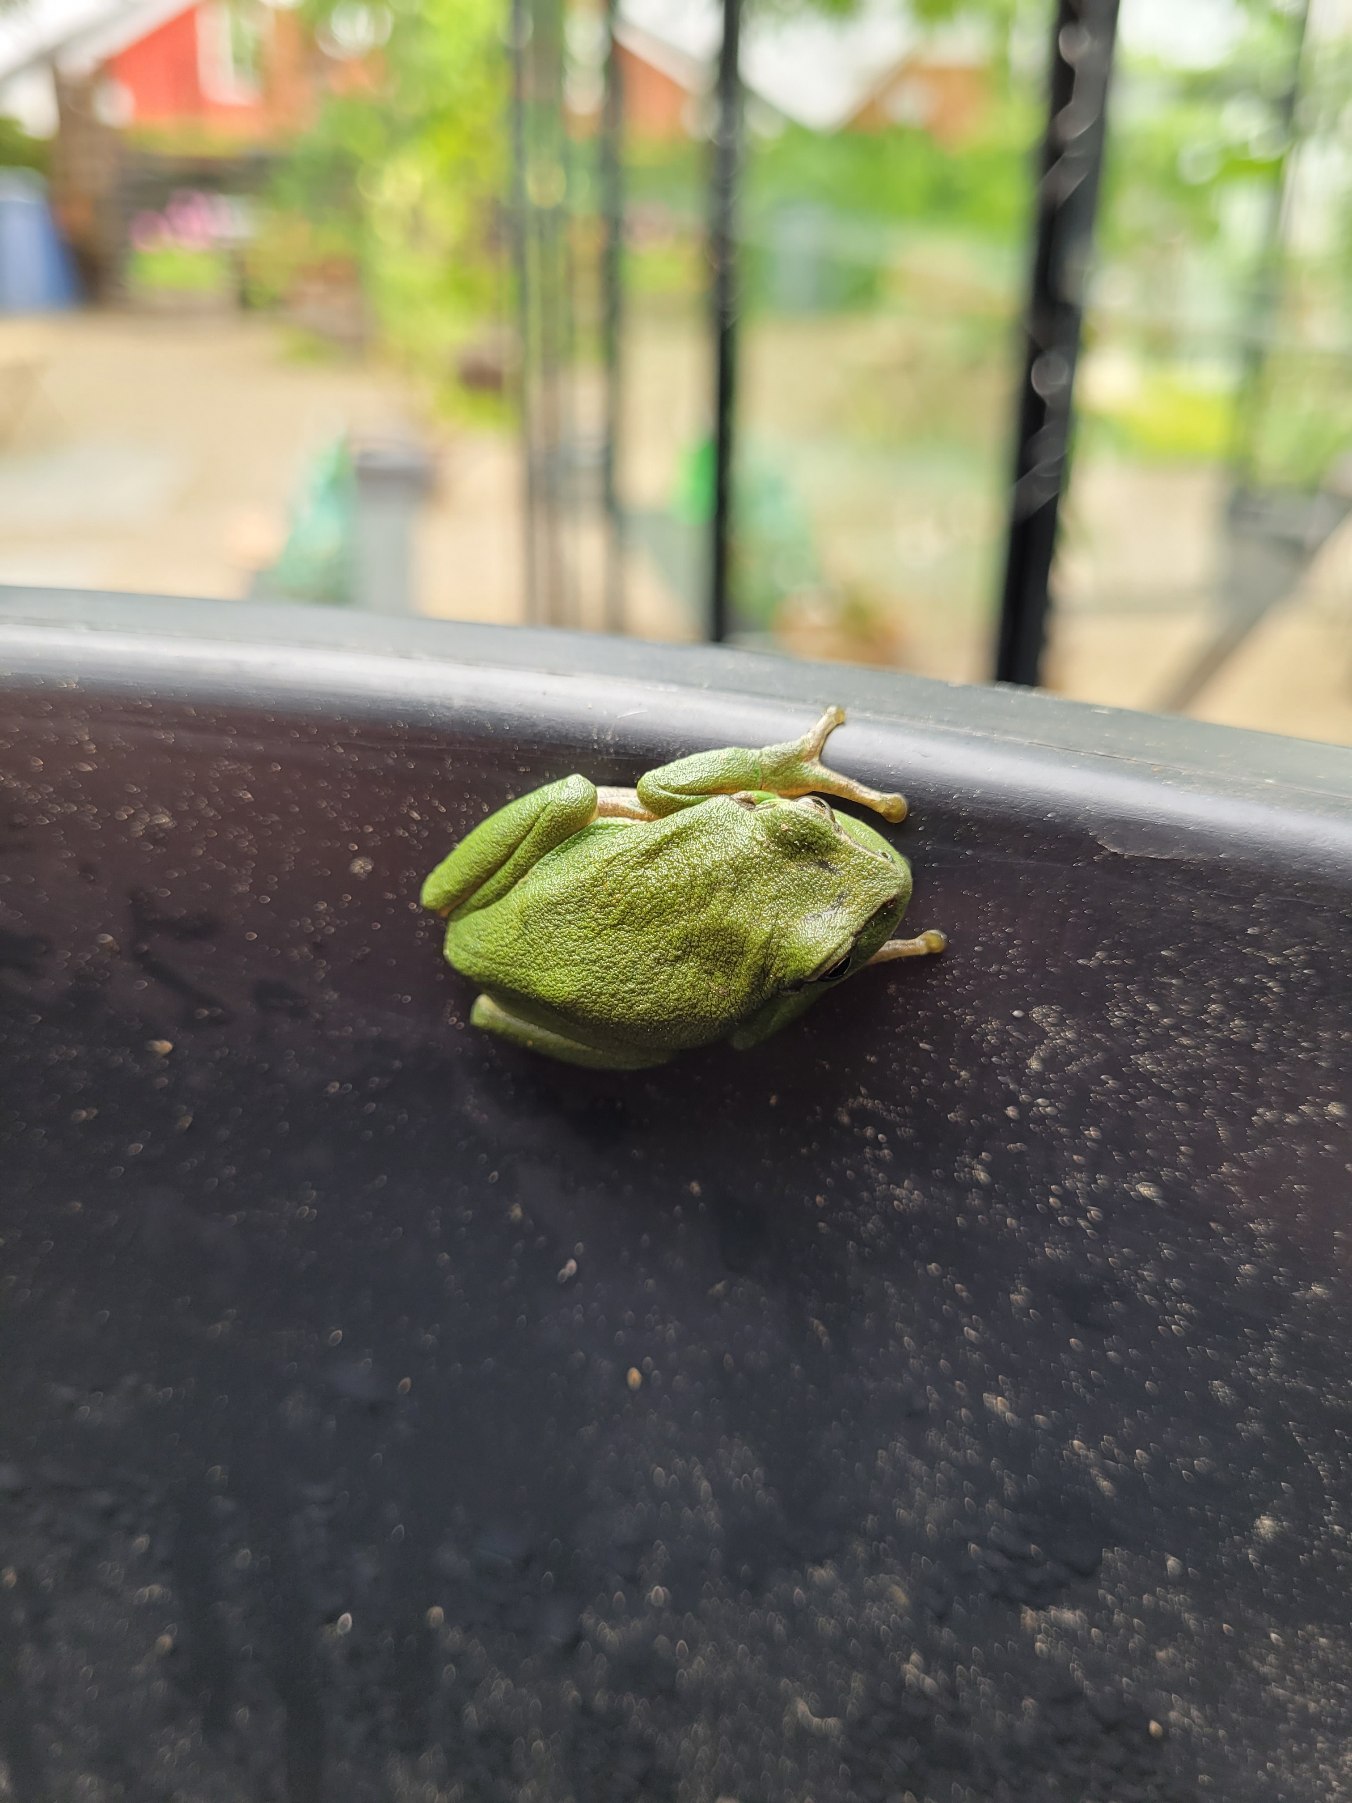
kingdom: Animalia
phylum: Chordata
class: Amphibia
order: Anura
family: Hylidae
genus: Hyla
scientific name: Hyla arborea
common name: Løvfrø
